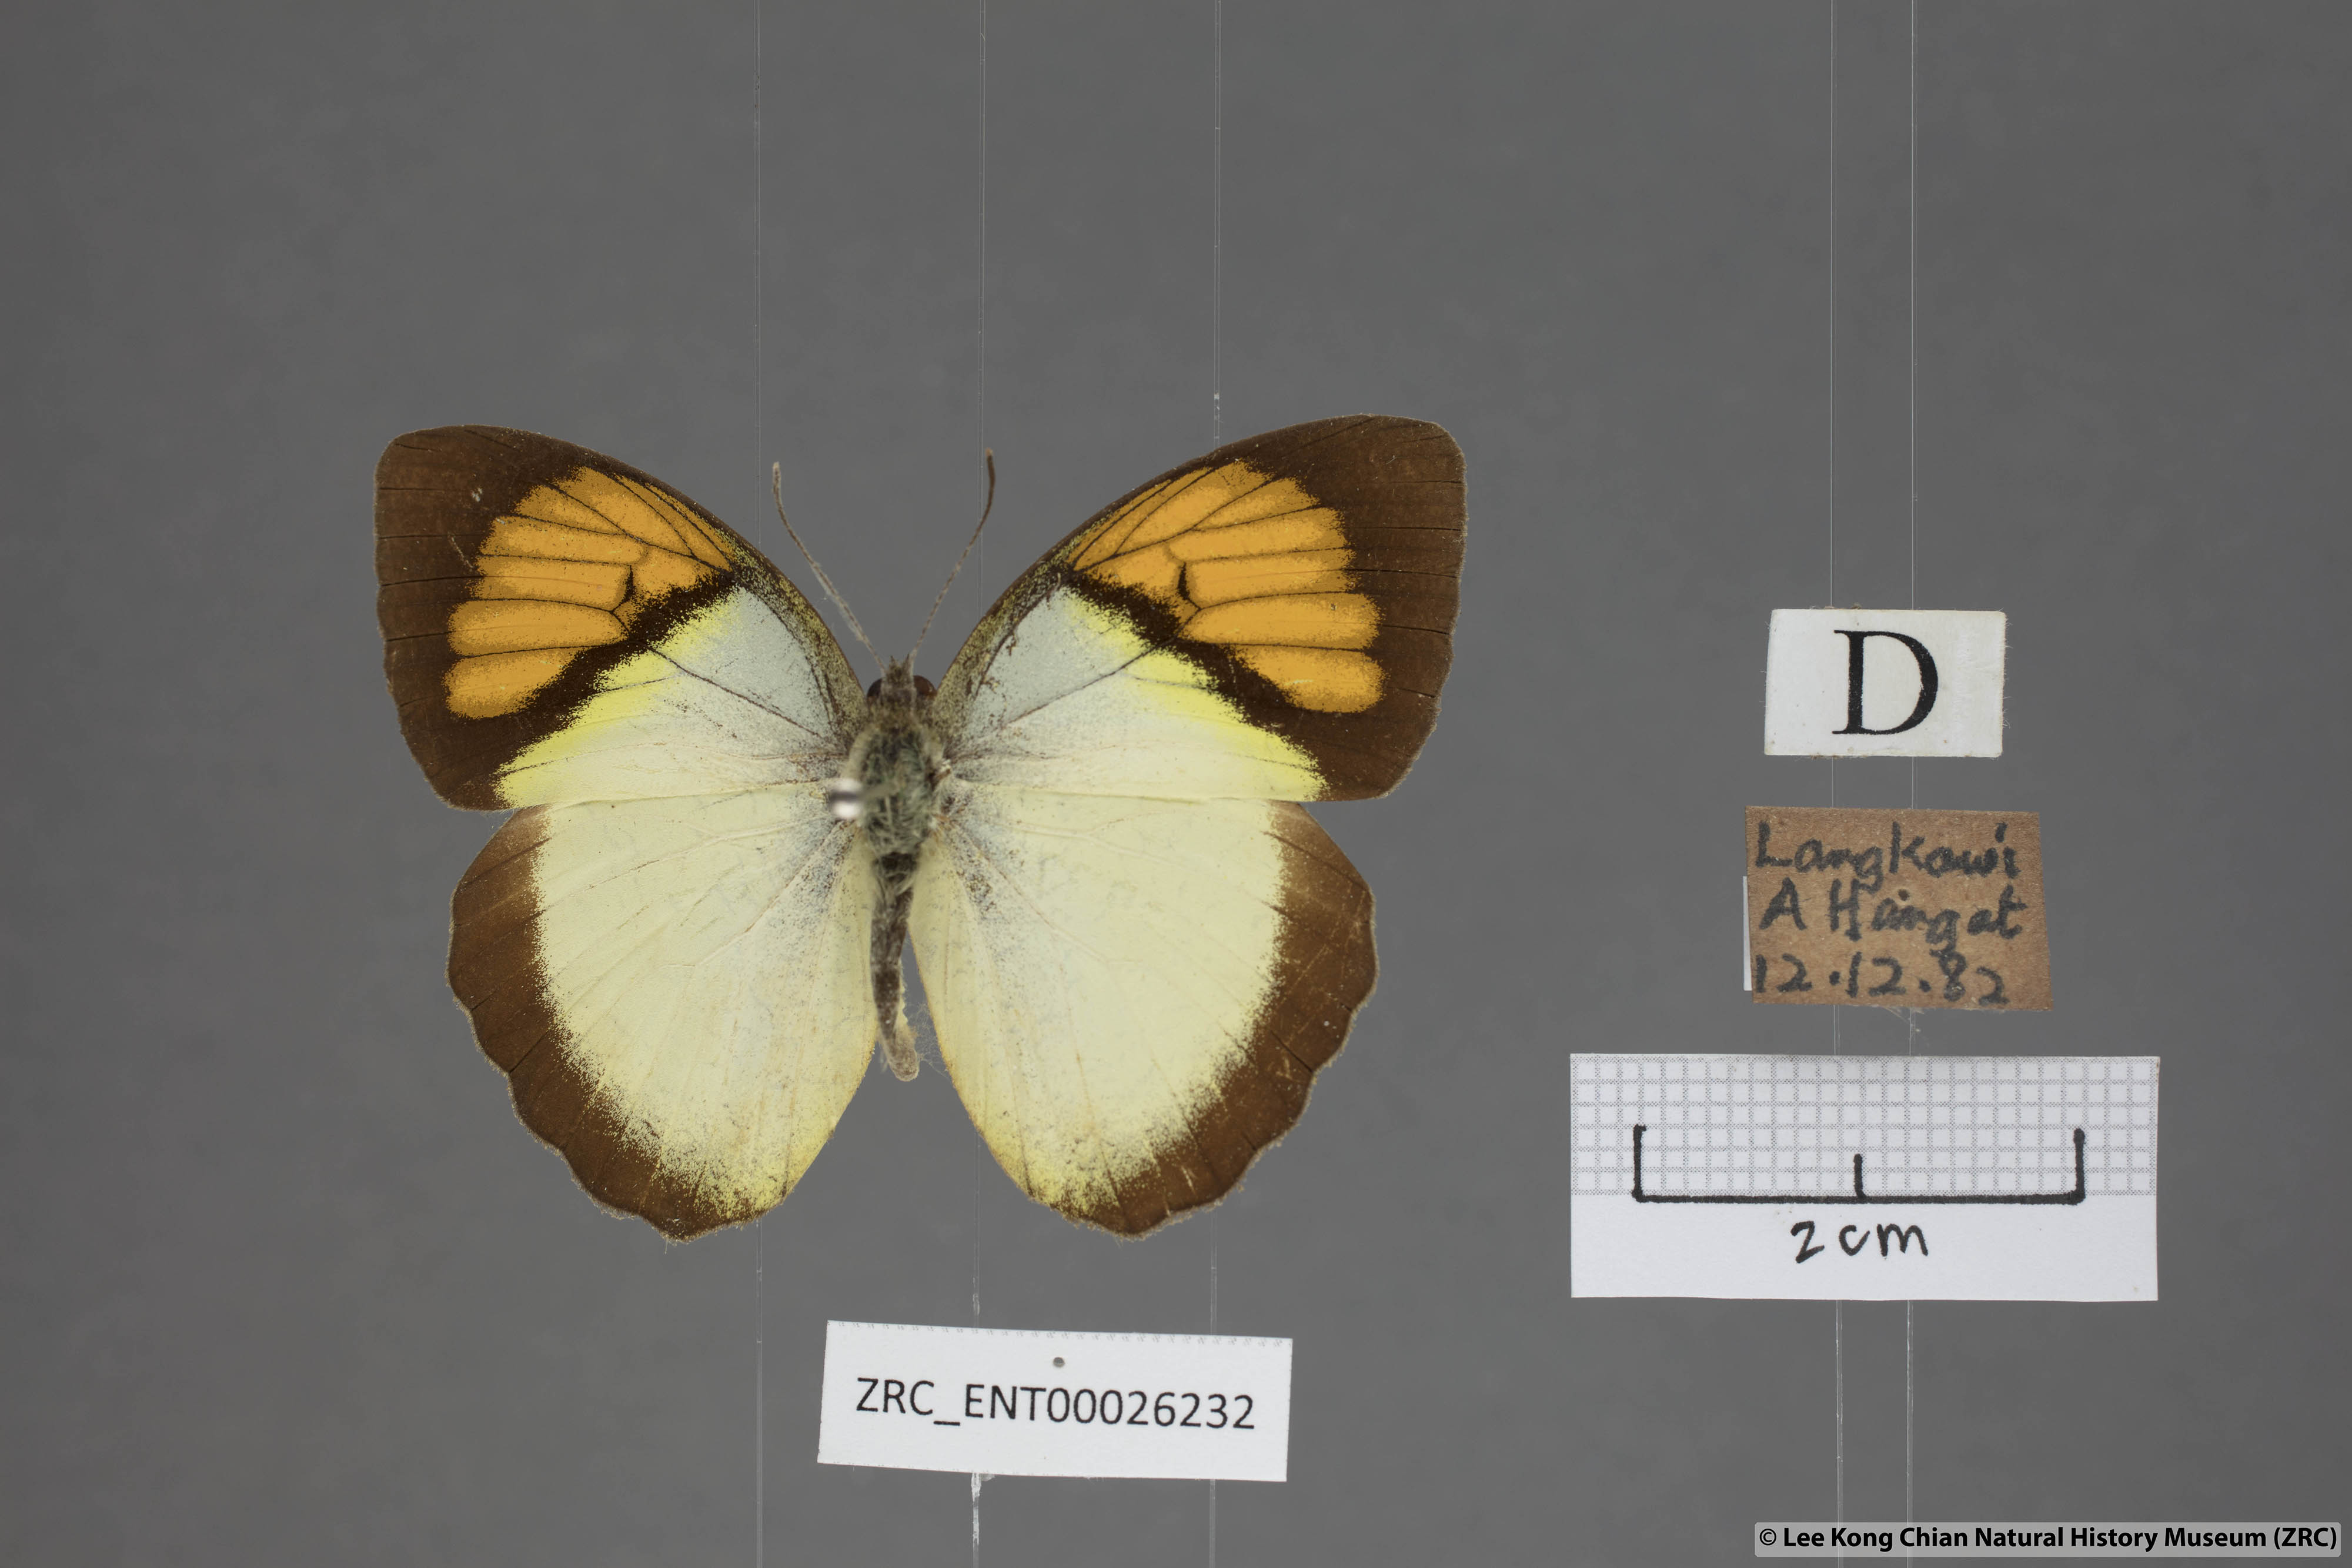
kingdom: Animalia
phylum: Arthropoda
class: Insecta
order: Lepidoptera
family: Pieridae
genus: Ixias
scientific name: Ixias pyrene
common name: Yellow orange tip
